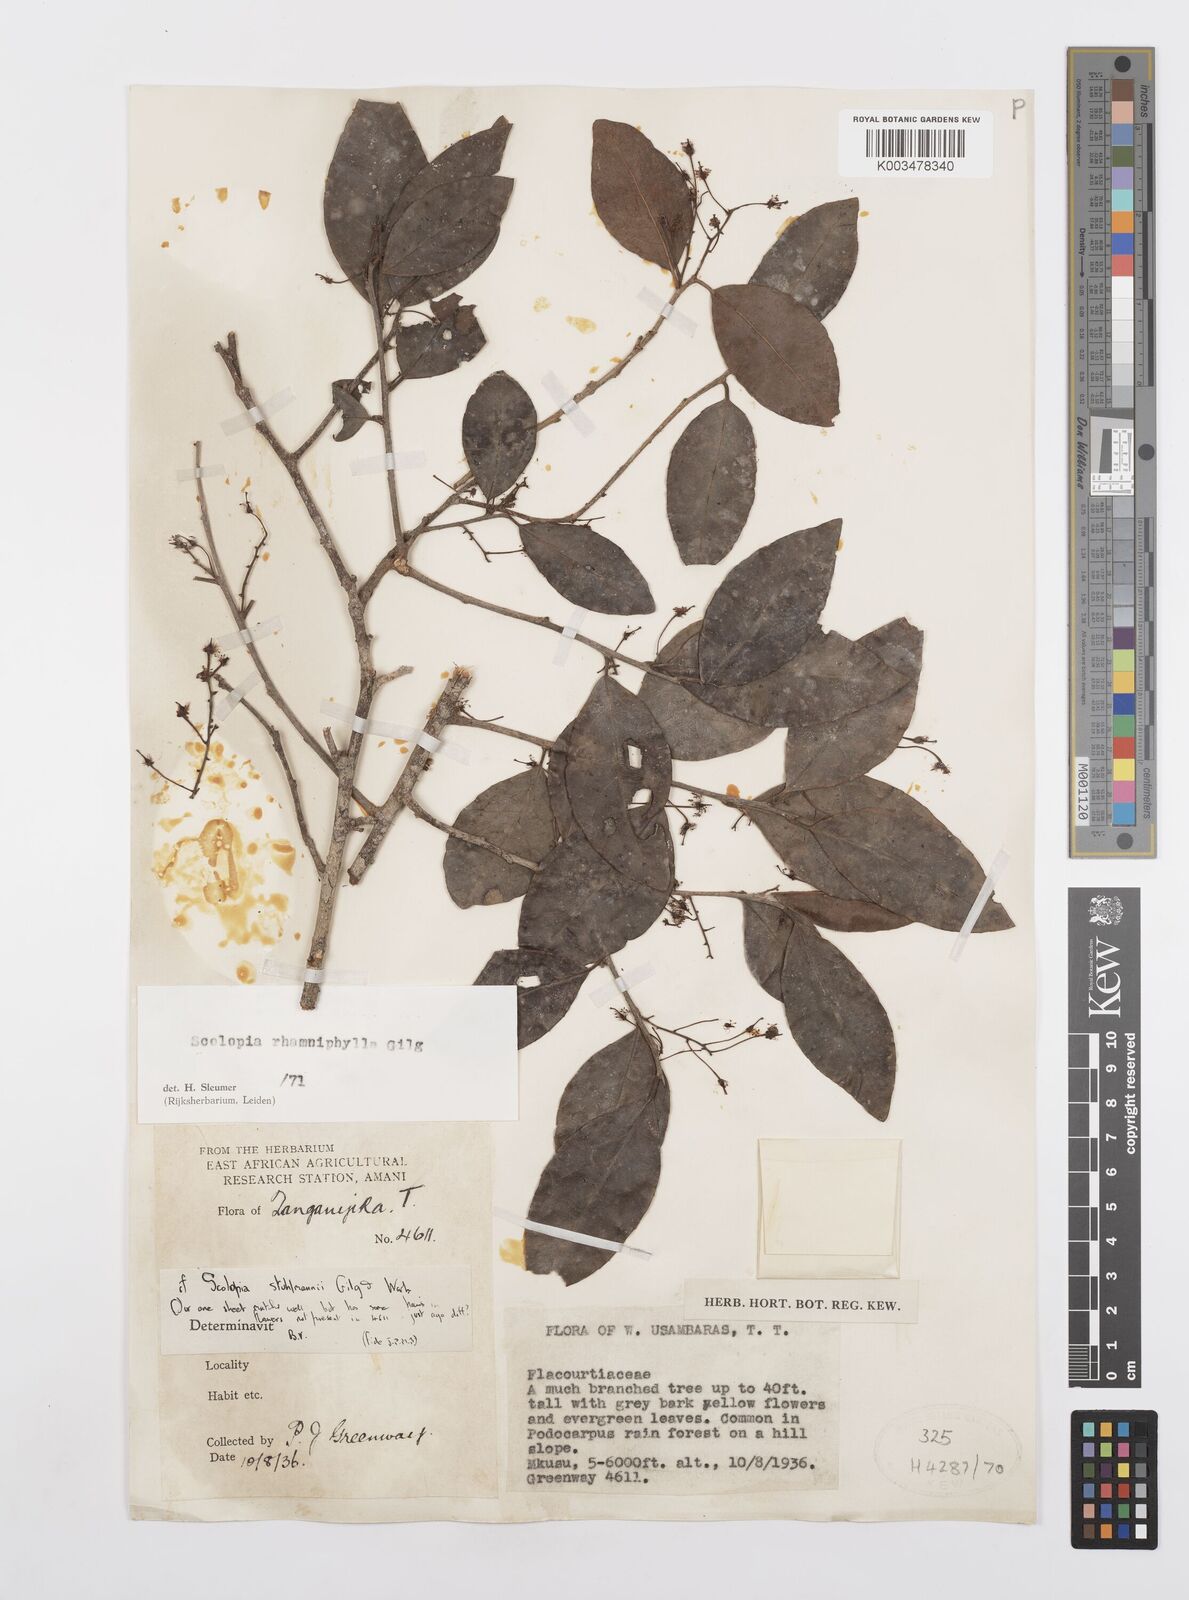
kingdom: Plantae
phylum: Tracheophyta
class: Magnoliopsida
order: Malpighiales
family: Salicaceae
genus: Scolopia
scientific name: Scolopia rhamniphylla
